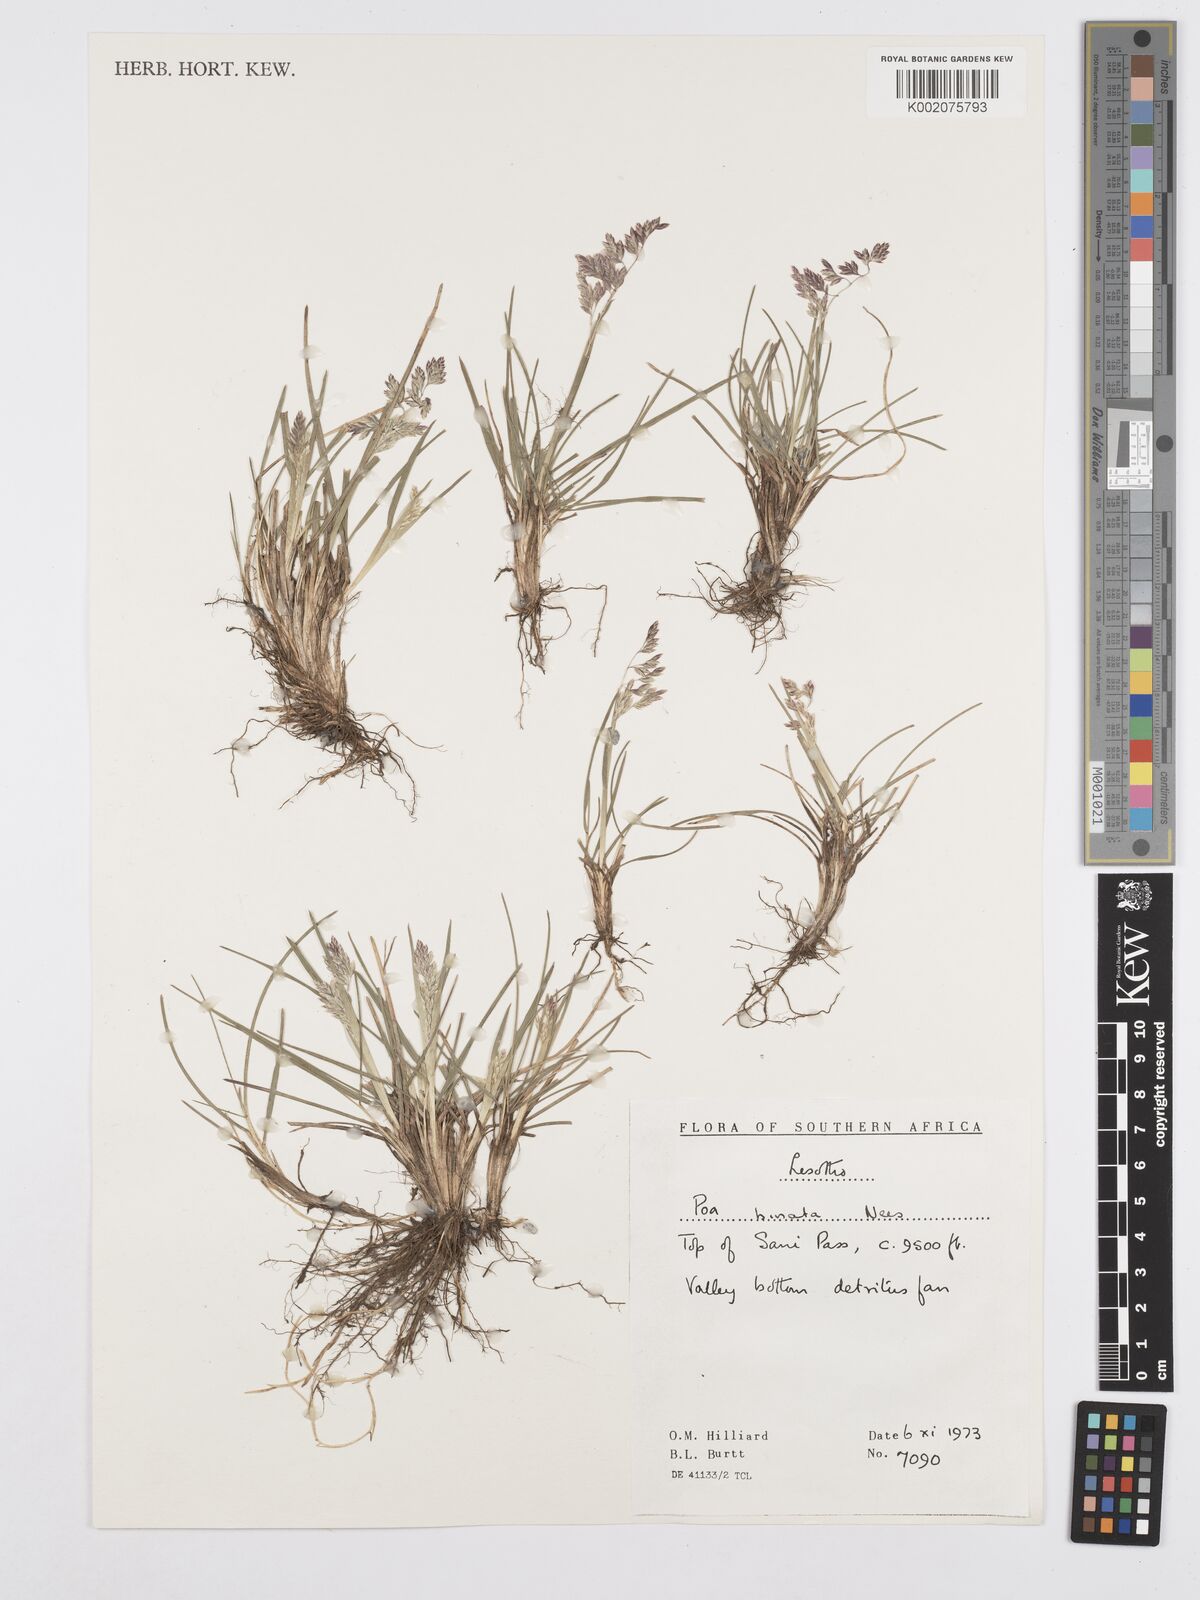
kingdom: Plantae
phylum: Tracheophyta
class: Liliopsida
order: Poales
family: Poaceae
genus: Poa
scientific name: Poa binata
